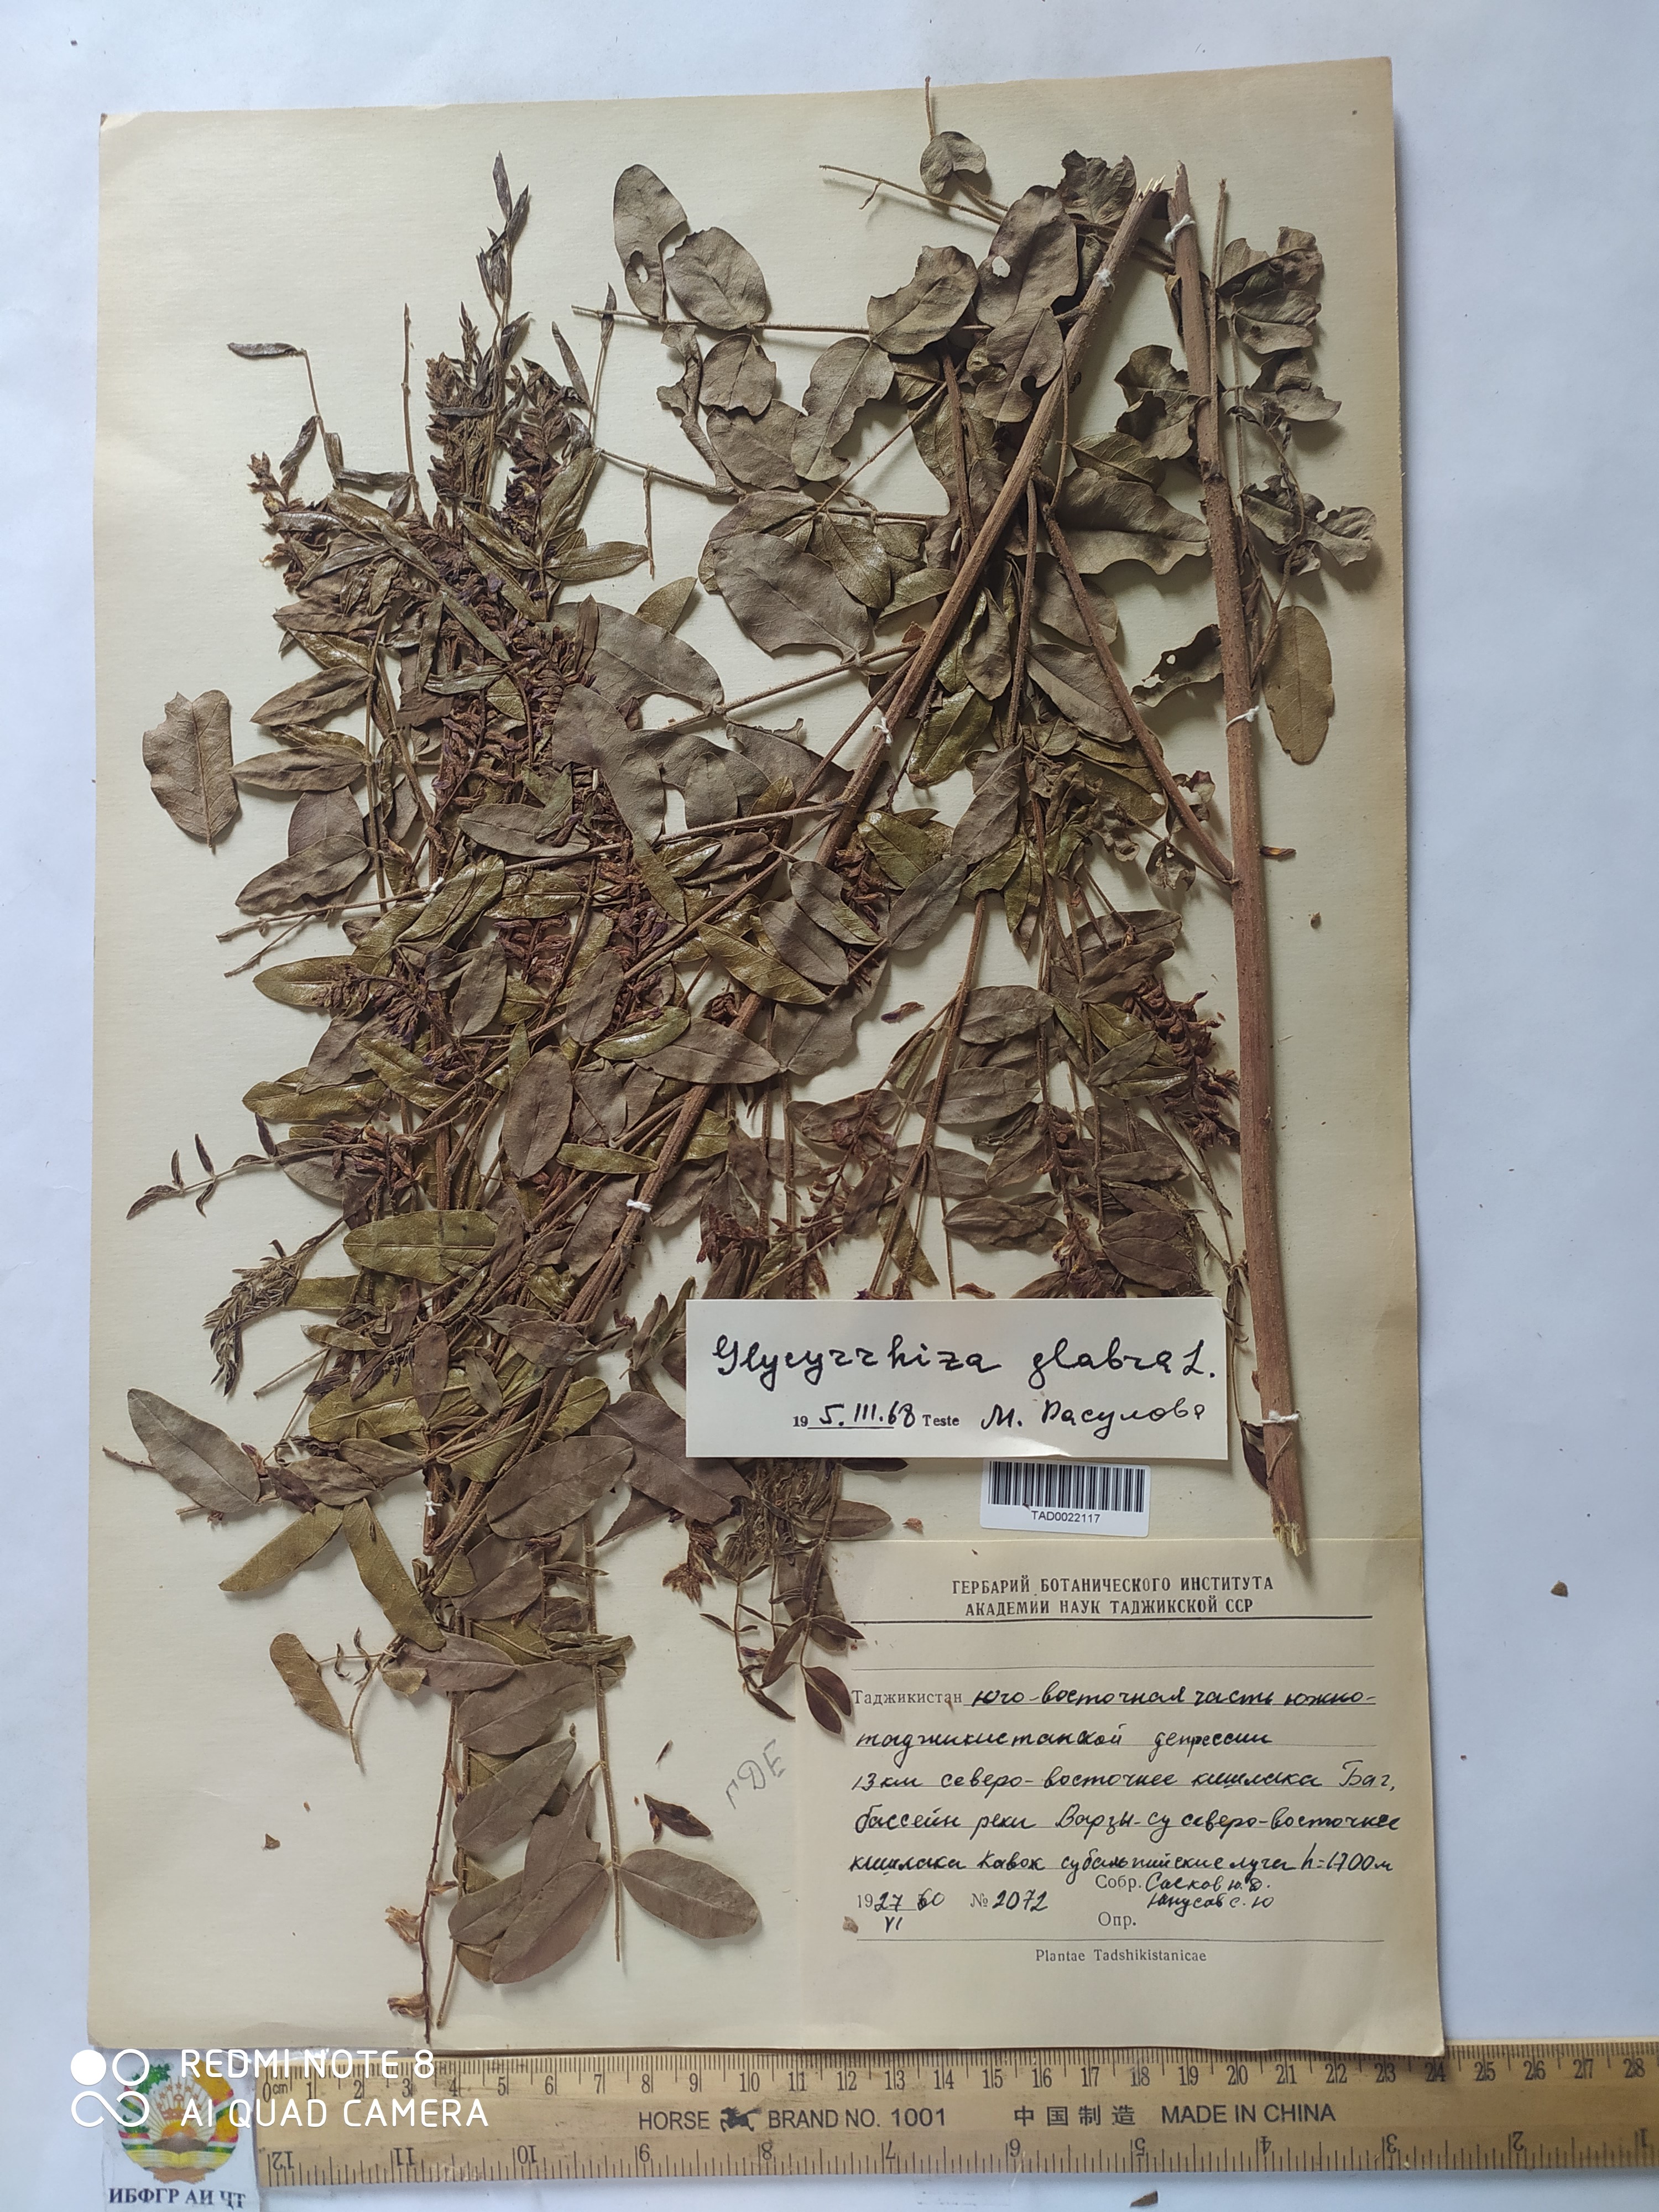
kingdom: Plantae
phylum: Tracheophyta
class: Magnoliopsida
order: Fabales
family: Fabaceae
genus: Glycyrrhiza
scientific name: Glycyrrhiza glabra
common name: Liquorice
